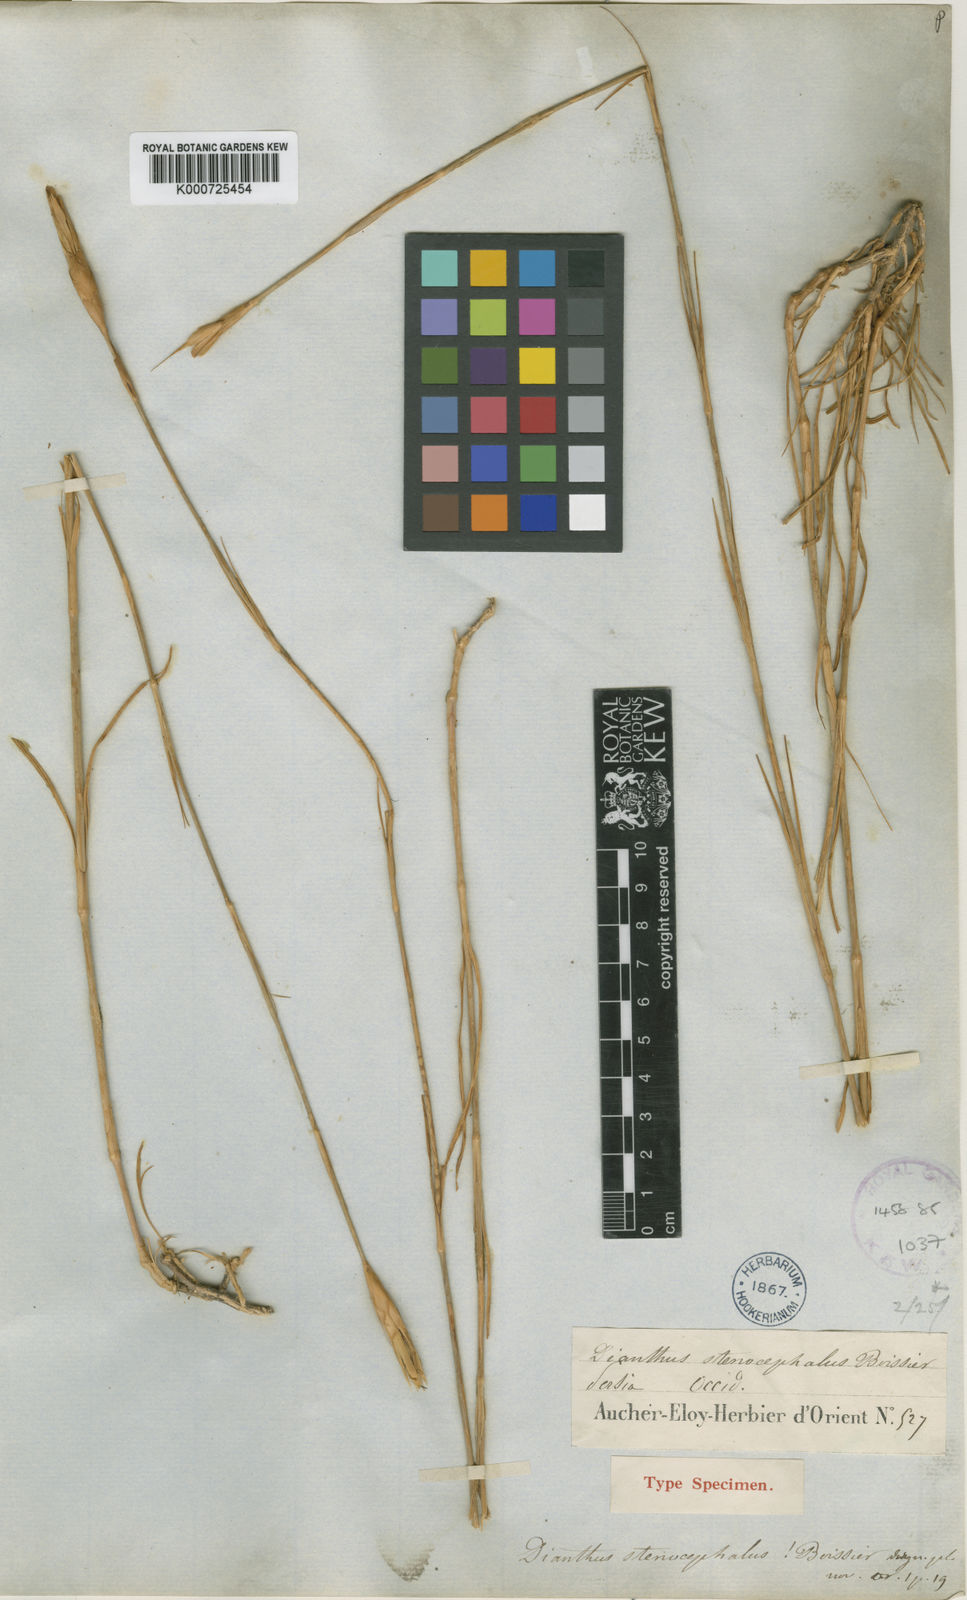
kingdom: Plantae
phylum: Tracheophyta
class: Magnoliopsida
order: Caryophyllales
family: Caryophyllaceae
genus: Dianthus
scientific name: Dianthus stenocephalus
